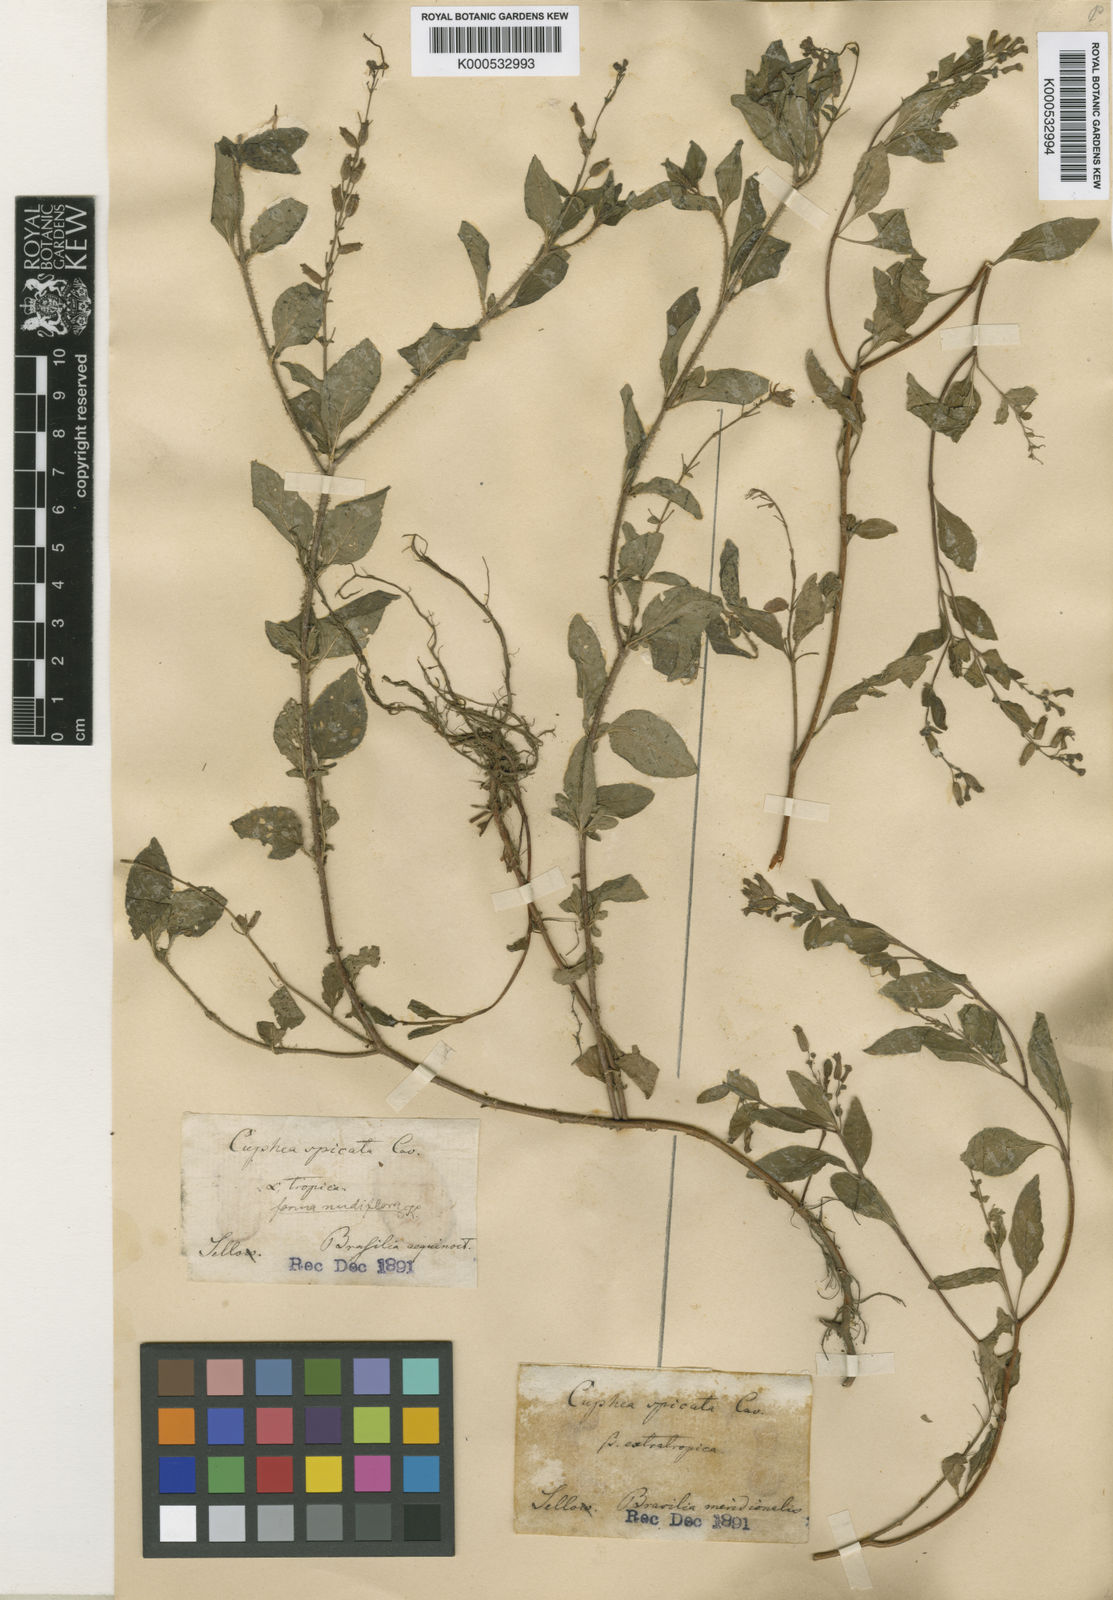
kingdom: Plantae
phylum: Tracheophyta
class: Magnoliopsida
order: Myrtales
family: Lythraceae
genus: Cuphea
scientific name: Cuphea racemosa
